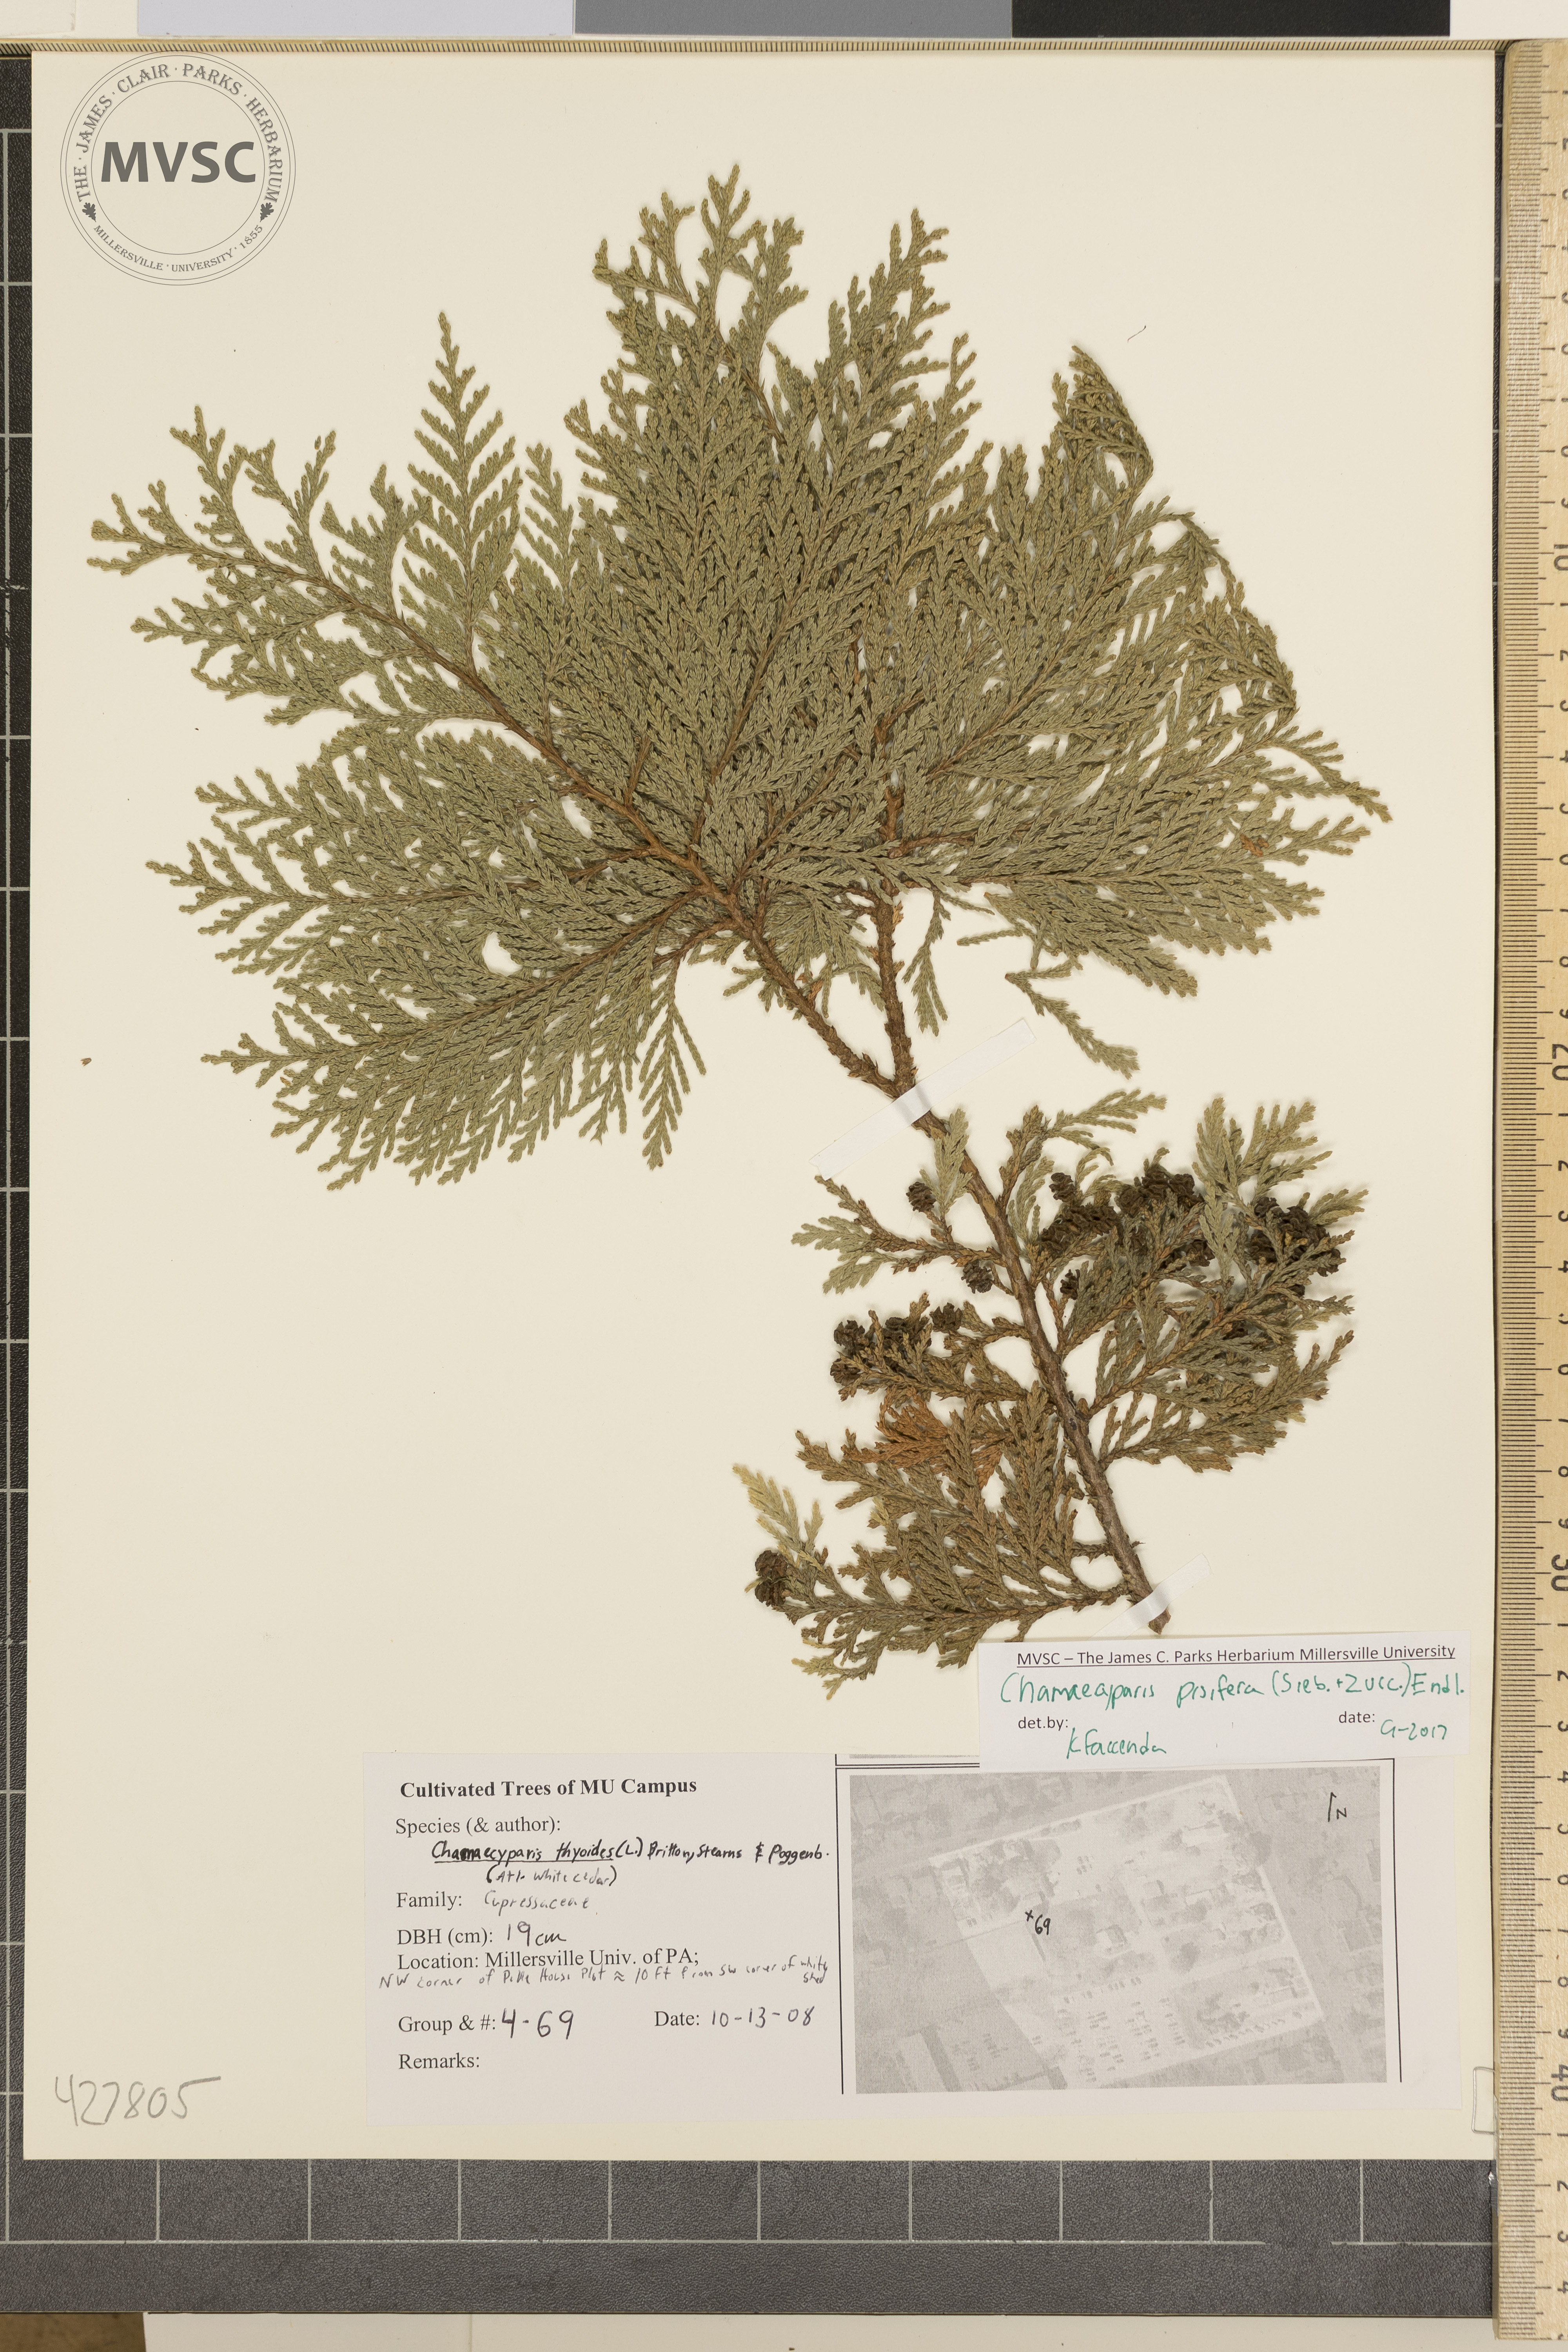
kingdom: Plantae
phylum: Tracheophyta
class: Pinopsida
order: Pinales
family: Cupressaceae
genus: Chamaecyparis
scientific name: Chamaecyparis pisifera
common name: Sawara cypress
